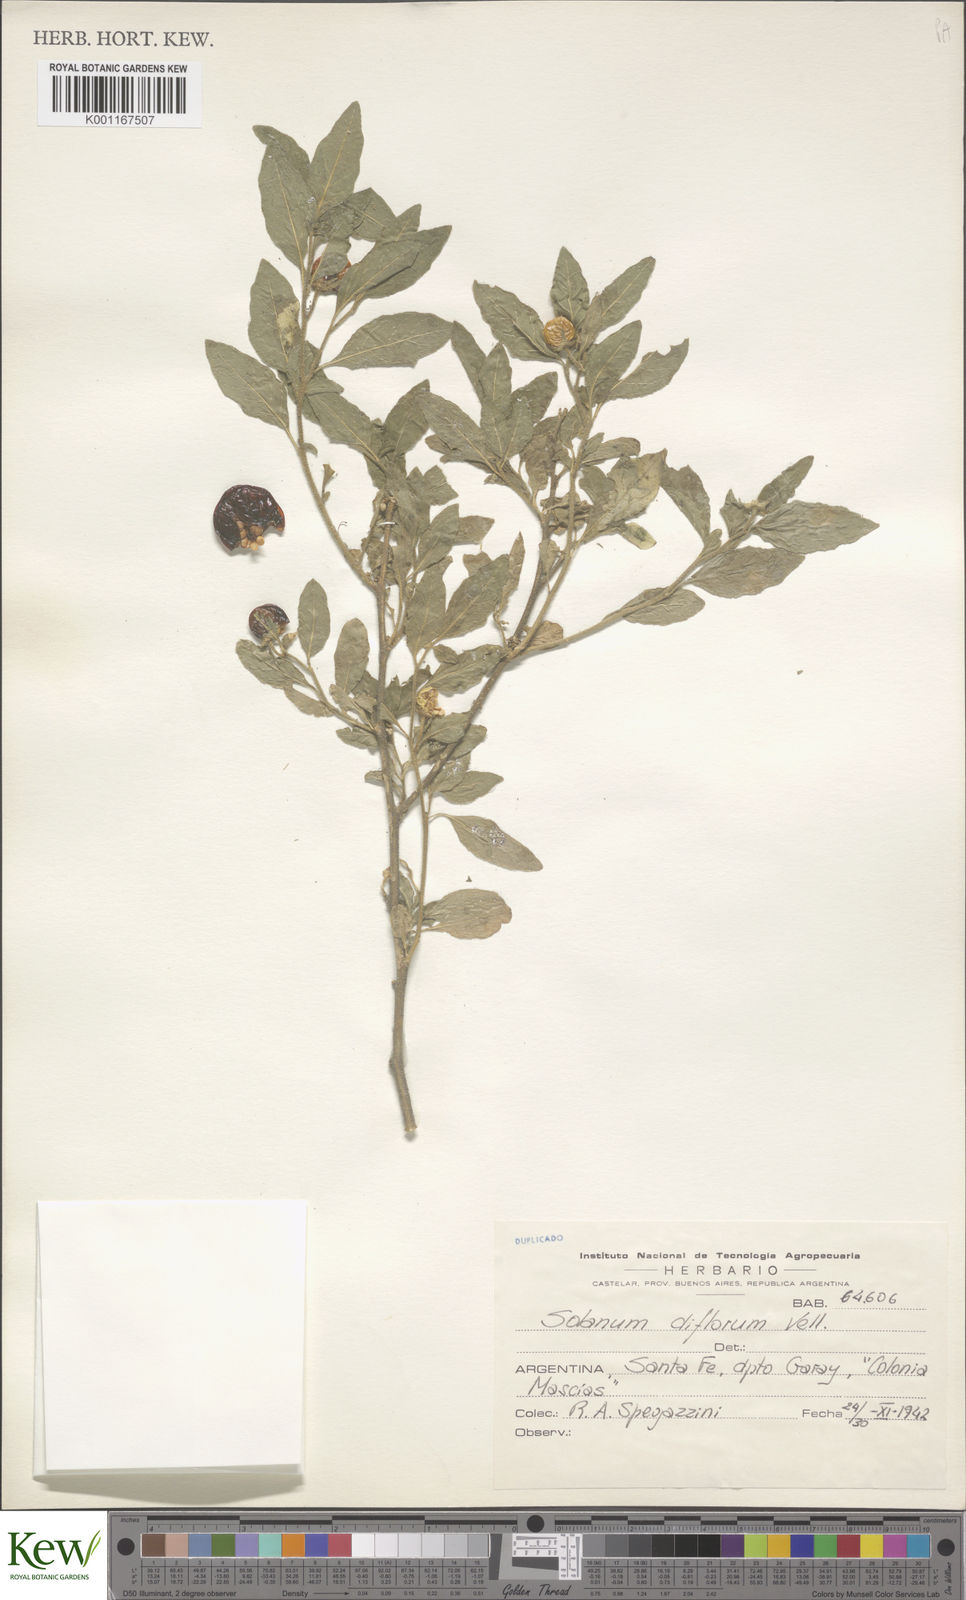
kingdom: Plantae
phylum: Tracheophyta
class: Magnoliopsida
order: Solanales
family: Solanaceae
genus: Solanum
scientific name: Solanum pseudocapsicum
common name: Jerusalem cherry
